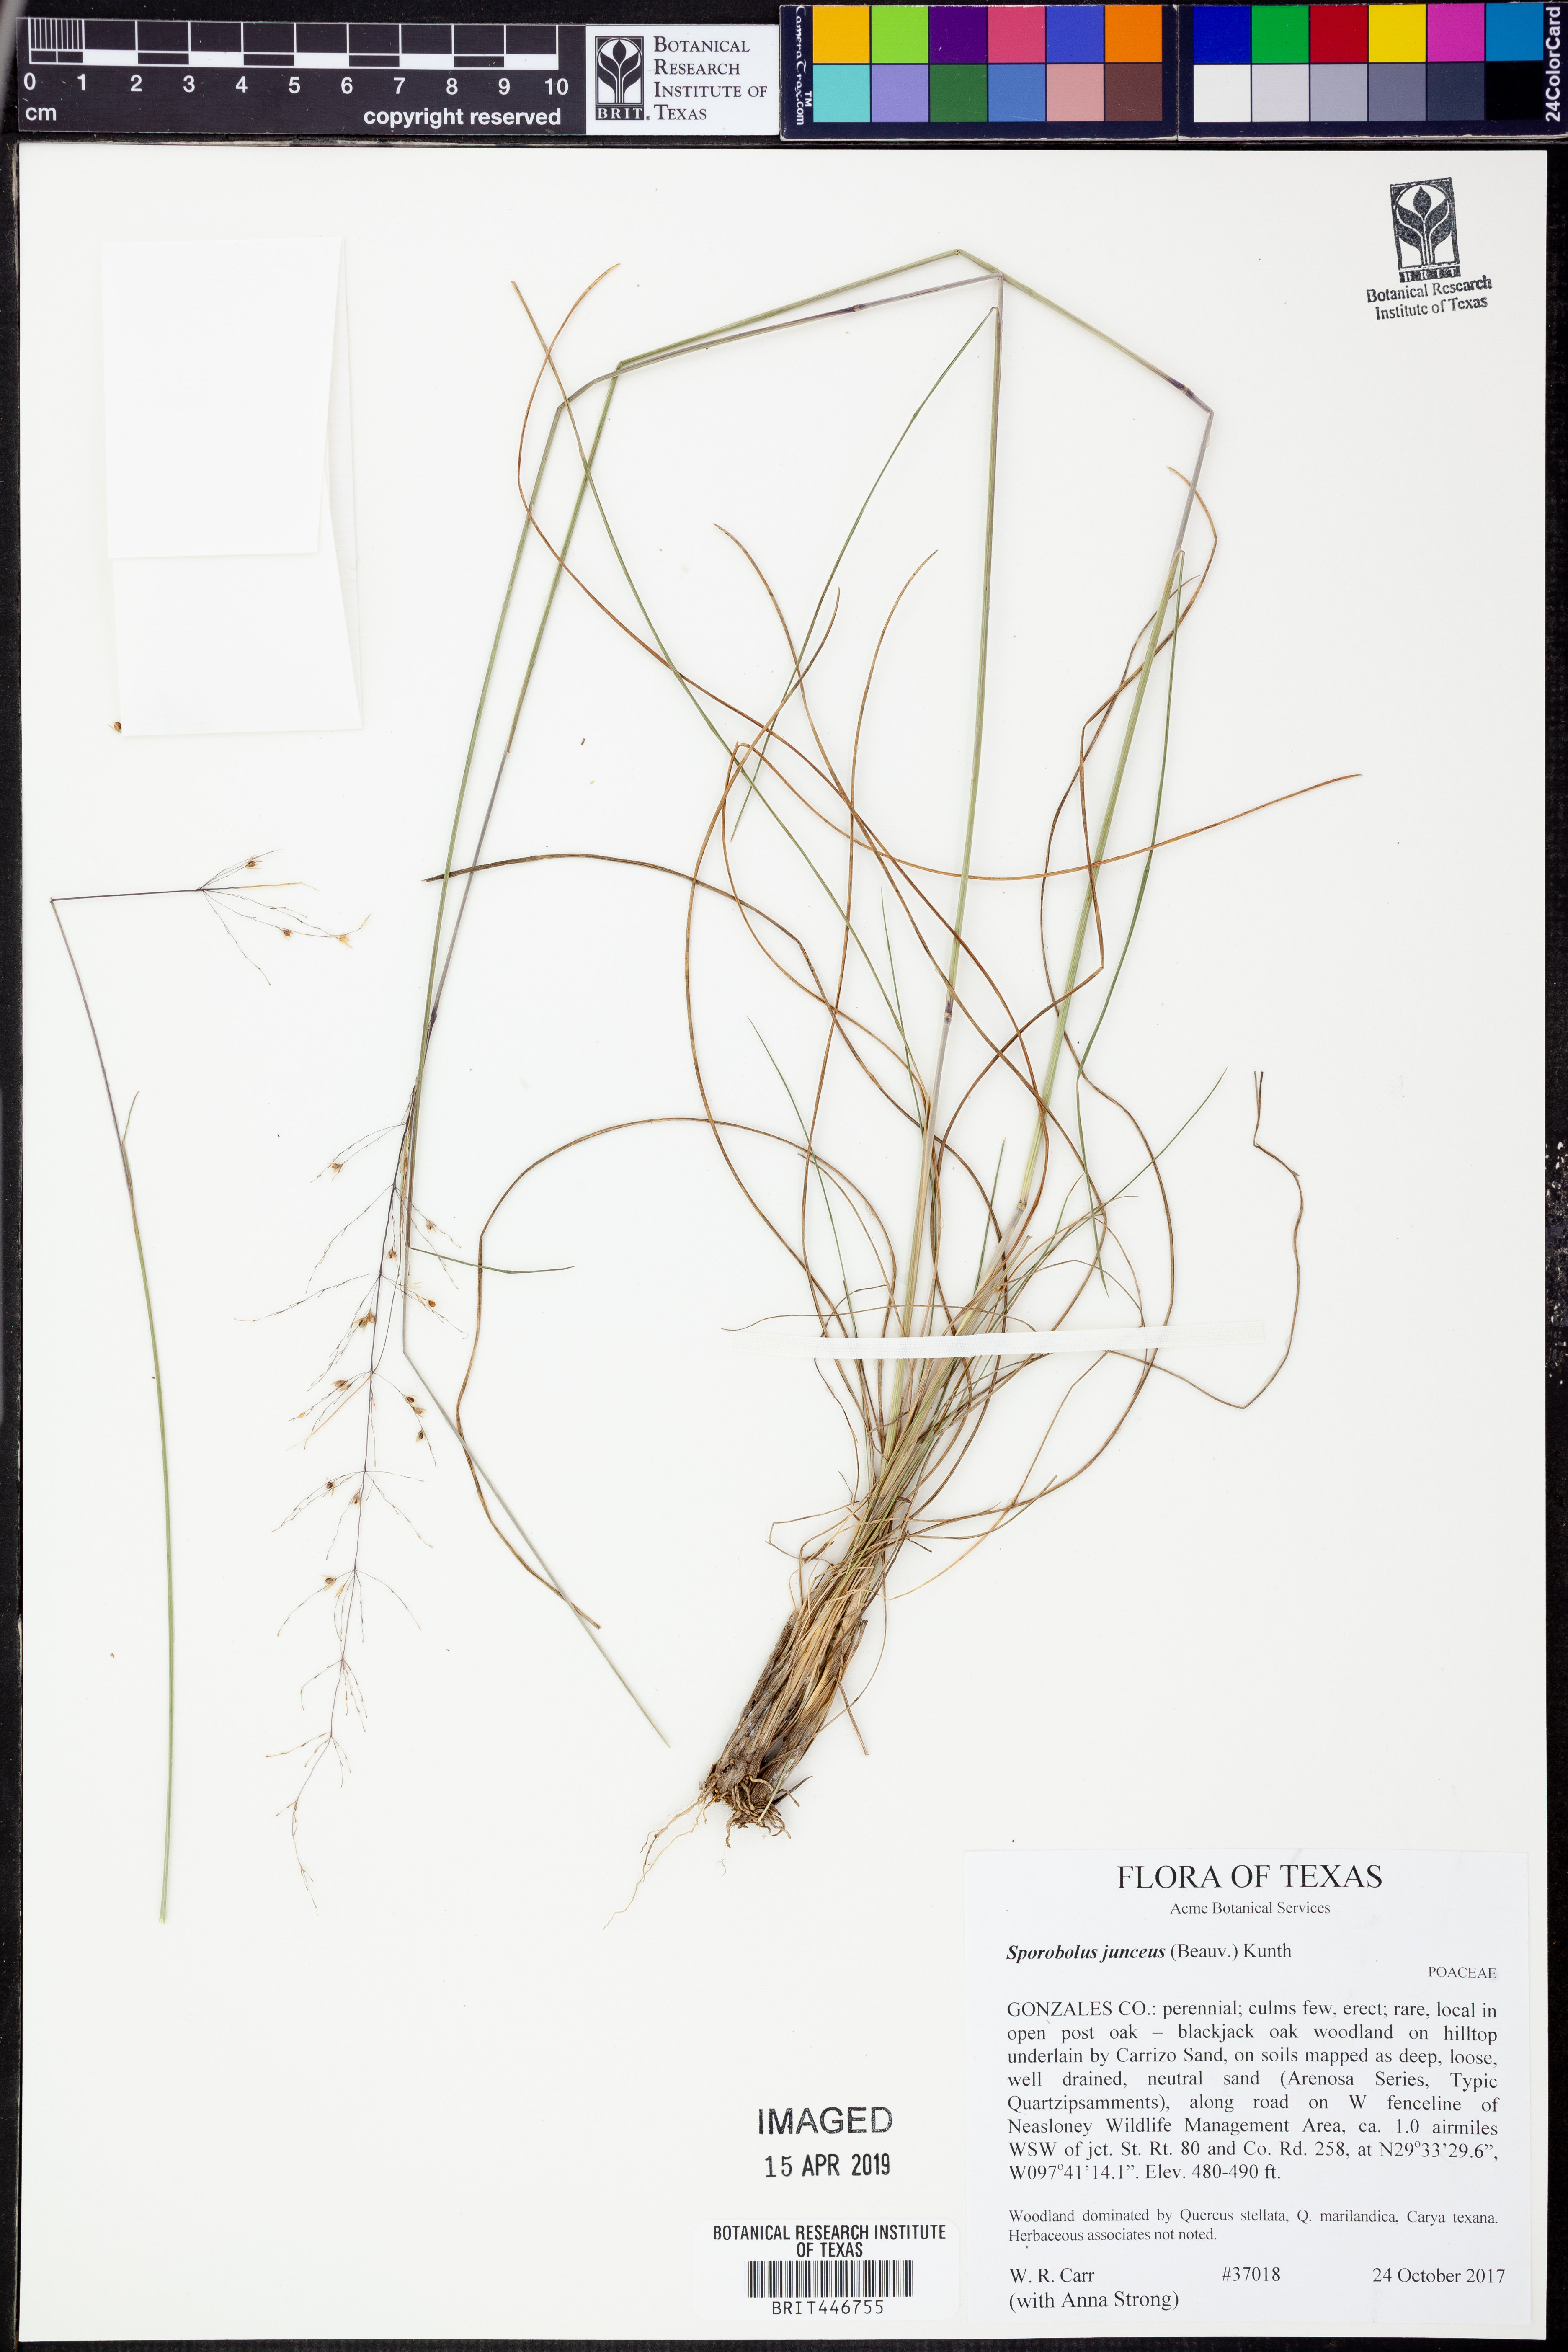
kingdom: Plantae
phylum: Tracheophyta
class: Liliopsida
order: Poales
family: Poaceae
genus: Sporobolus
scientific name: Sporobolus junceus
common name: Lizard grass
